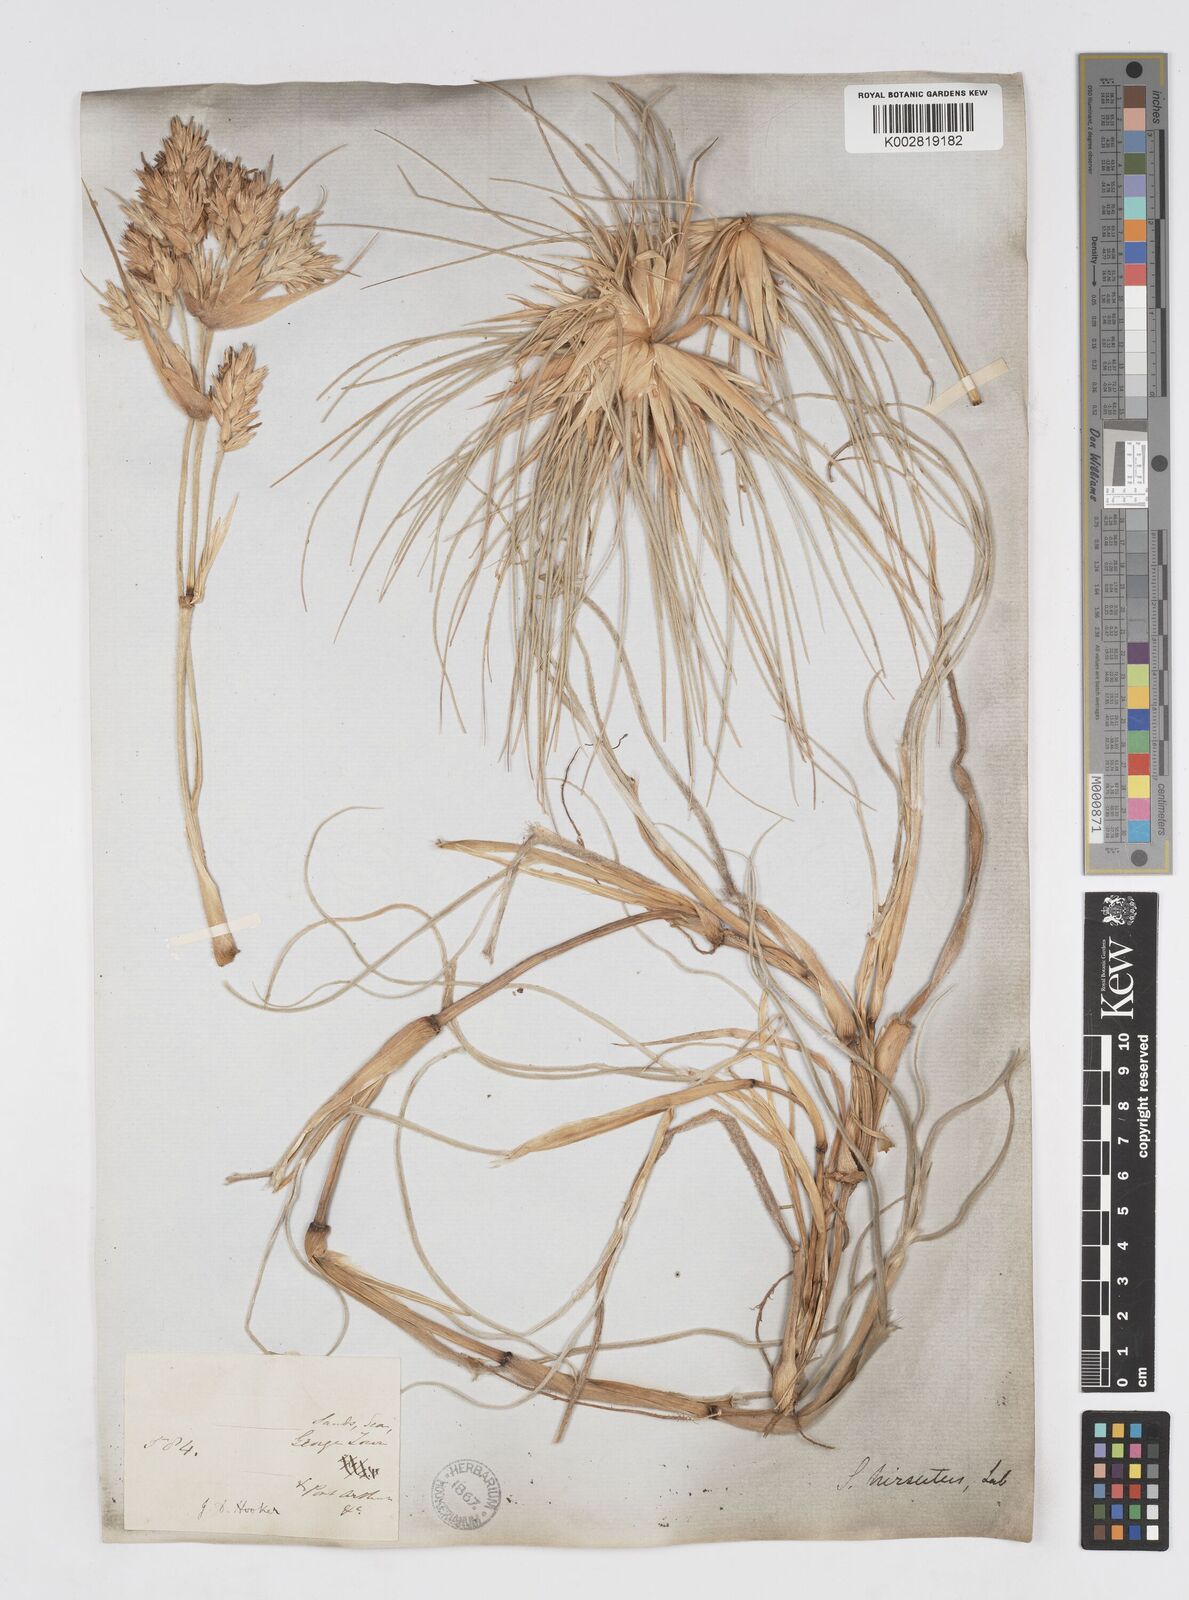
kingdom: Plantae
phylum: Tracheophyta
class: Liliopsida
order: Poales
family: Poaceae
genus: Spinifex
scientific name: Spinifex sericeus
